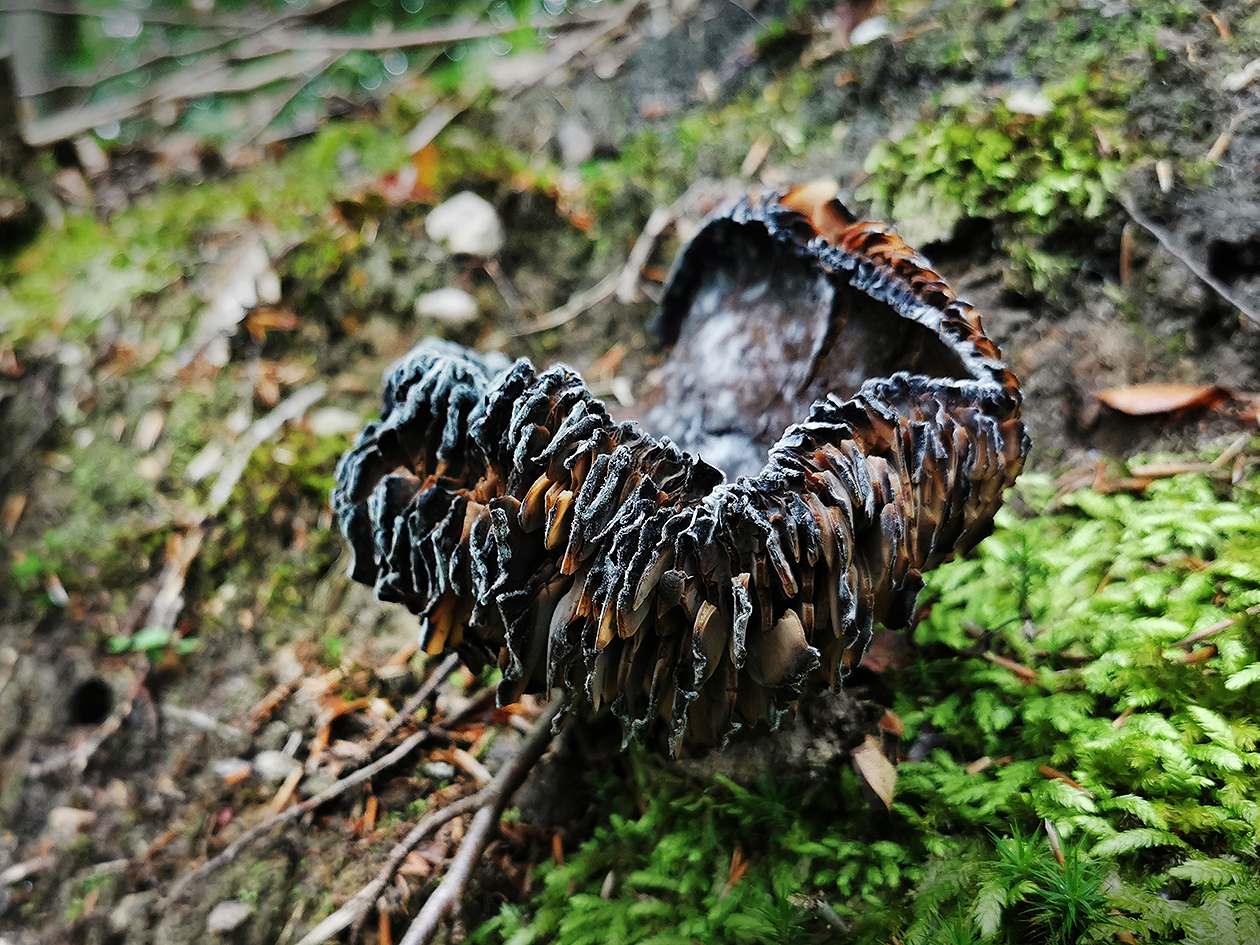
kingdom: Fungi
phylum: Basidiomycota
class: Agaricomycetes
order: Russulales
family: Russulaceae
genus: Russula
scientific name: Russula adusta
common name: sværtende skørhat
